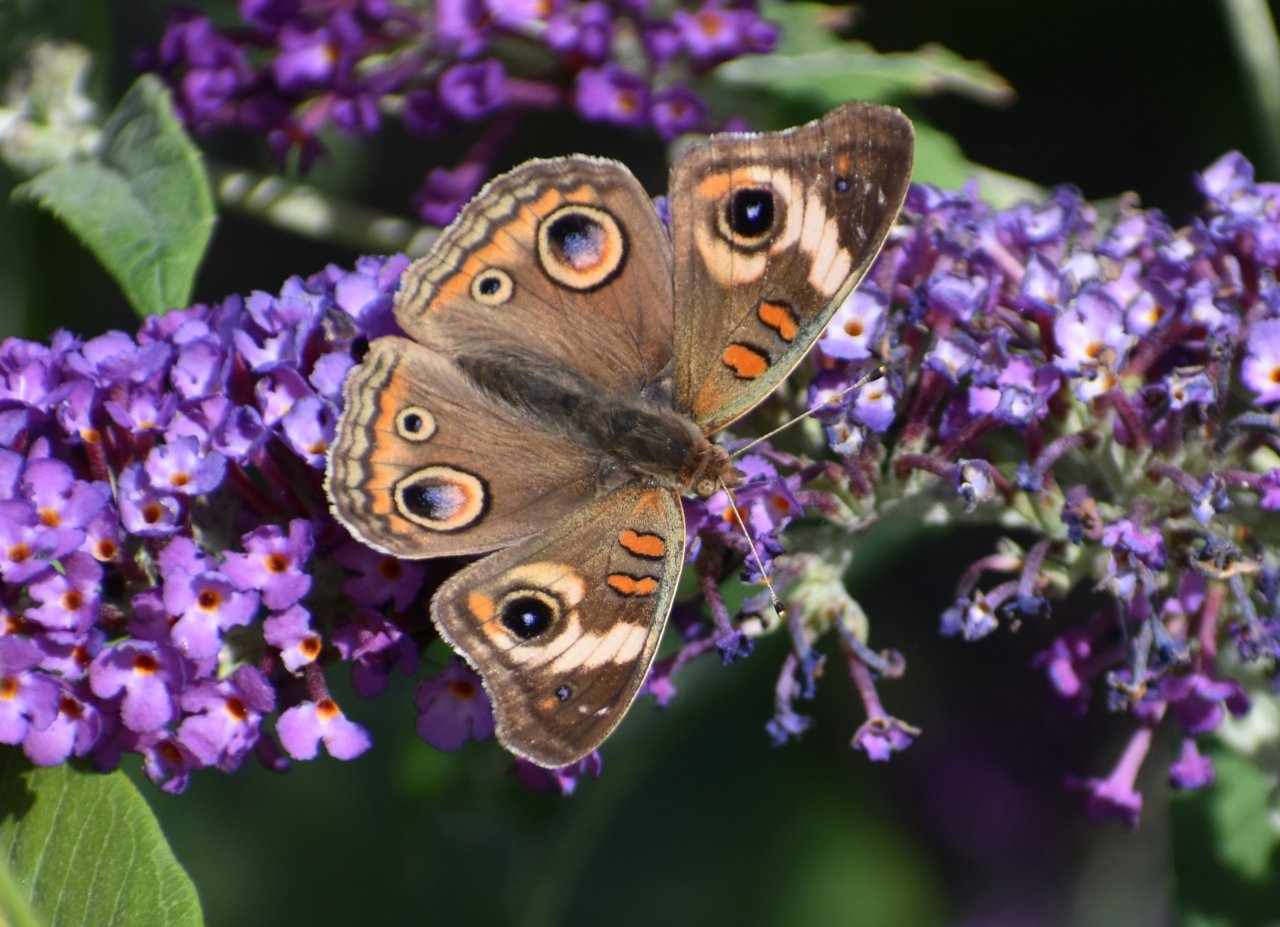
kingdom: Animalia
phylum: Arthropoda
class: Insecta
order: Lepidoptera
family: Nymphalidae
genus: Junonia
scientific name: Junonia coenia
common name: Common Buckeye
